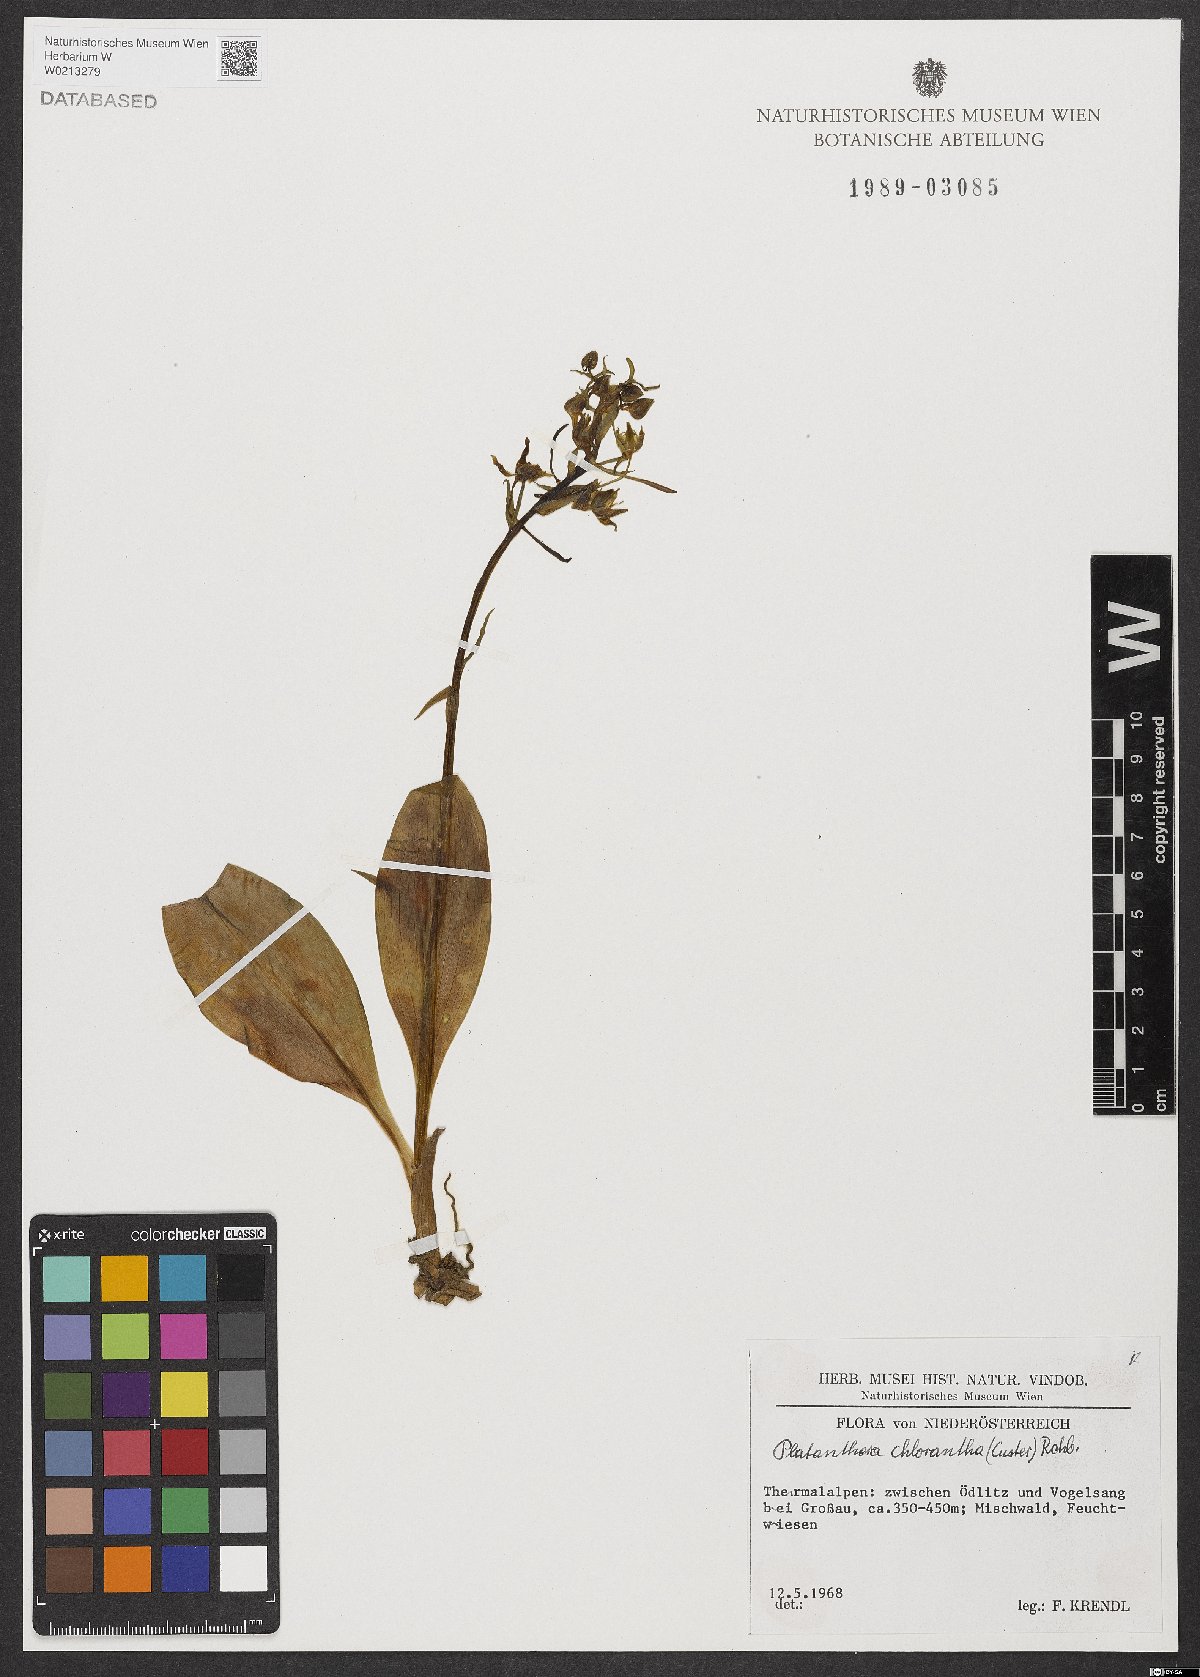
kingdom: Plantae
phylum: Tracheophyta
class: Liliopsida
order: Asparagales
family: Orchidaceae
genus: Platanthera
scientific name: Platanthera chlorantha
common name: Greater butterfly-orchid
